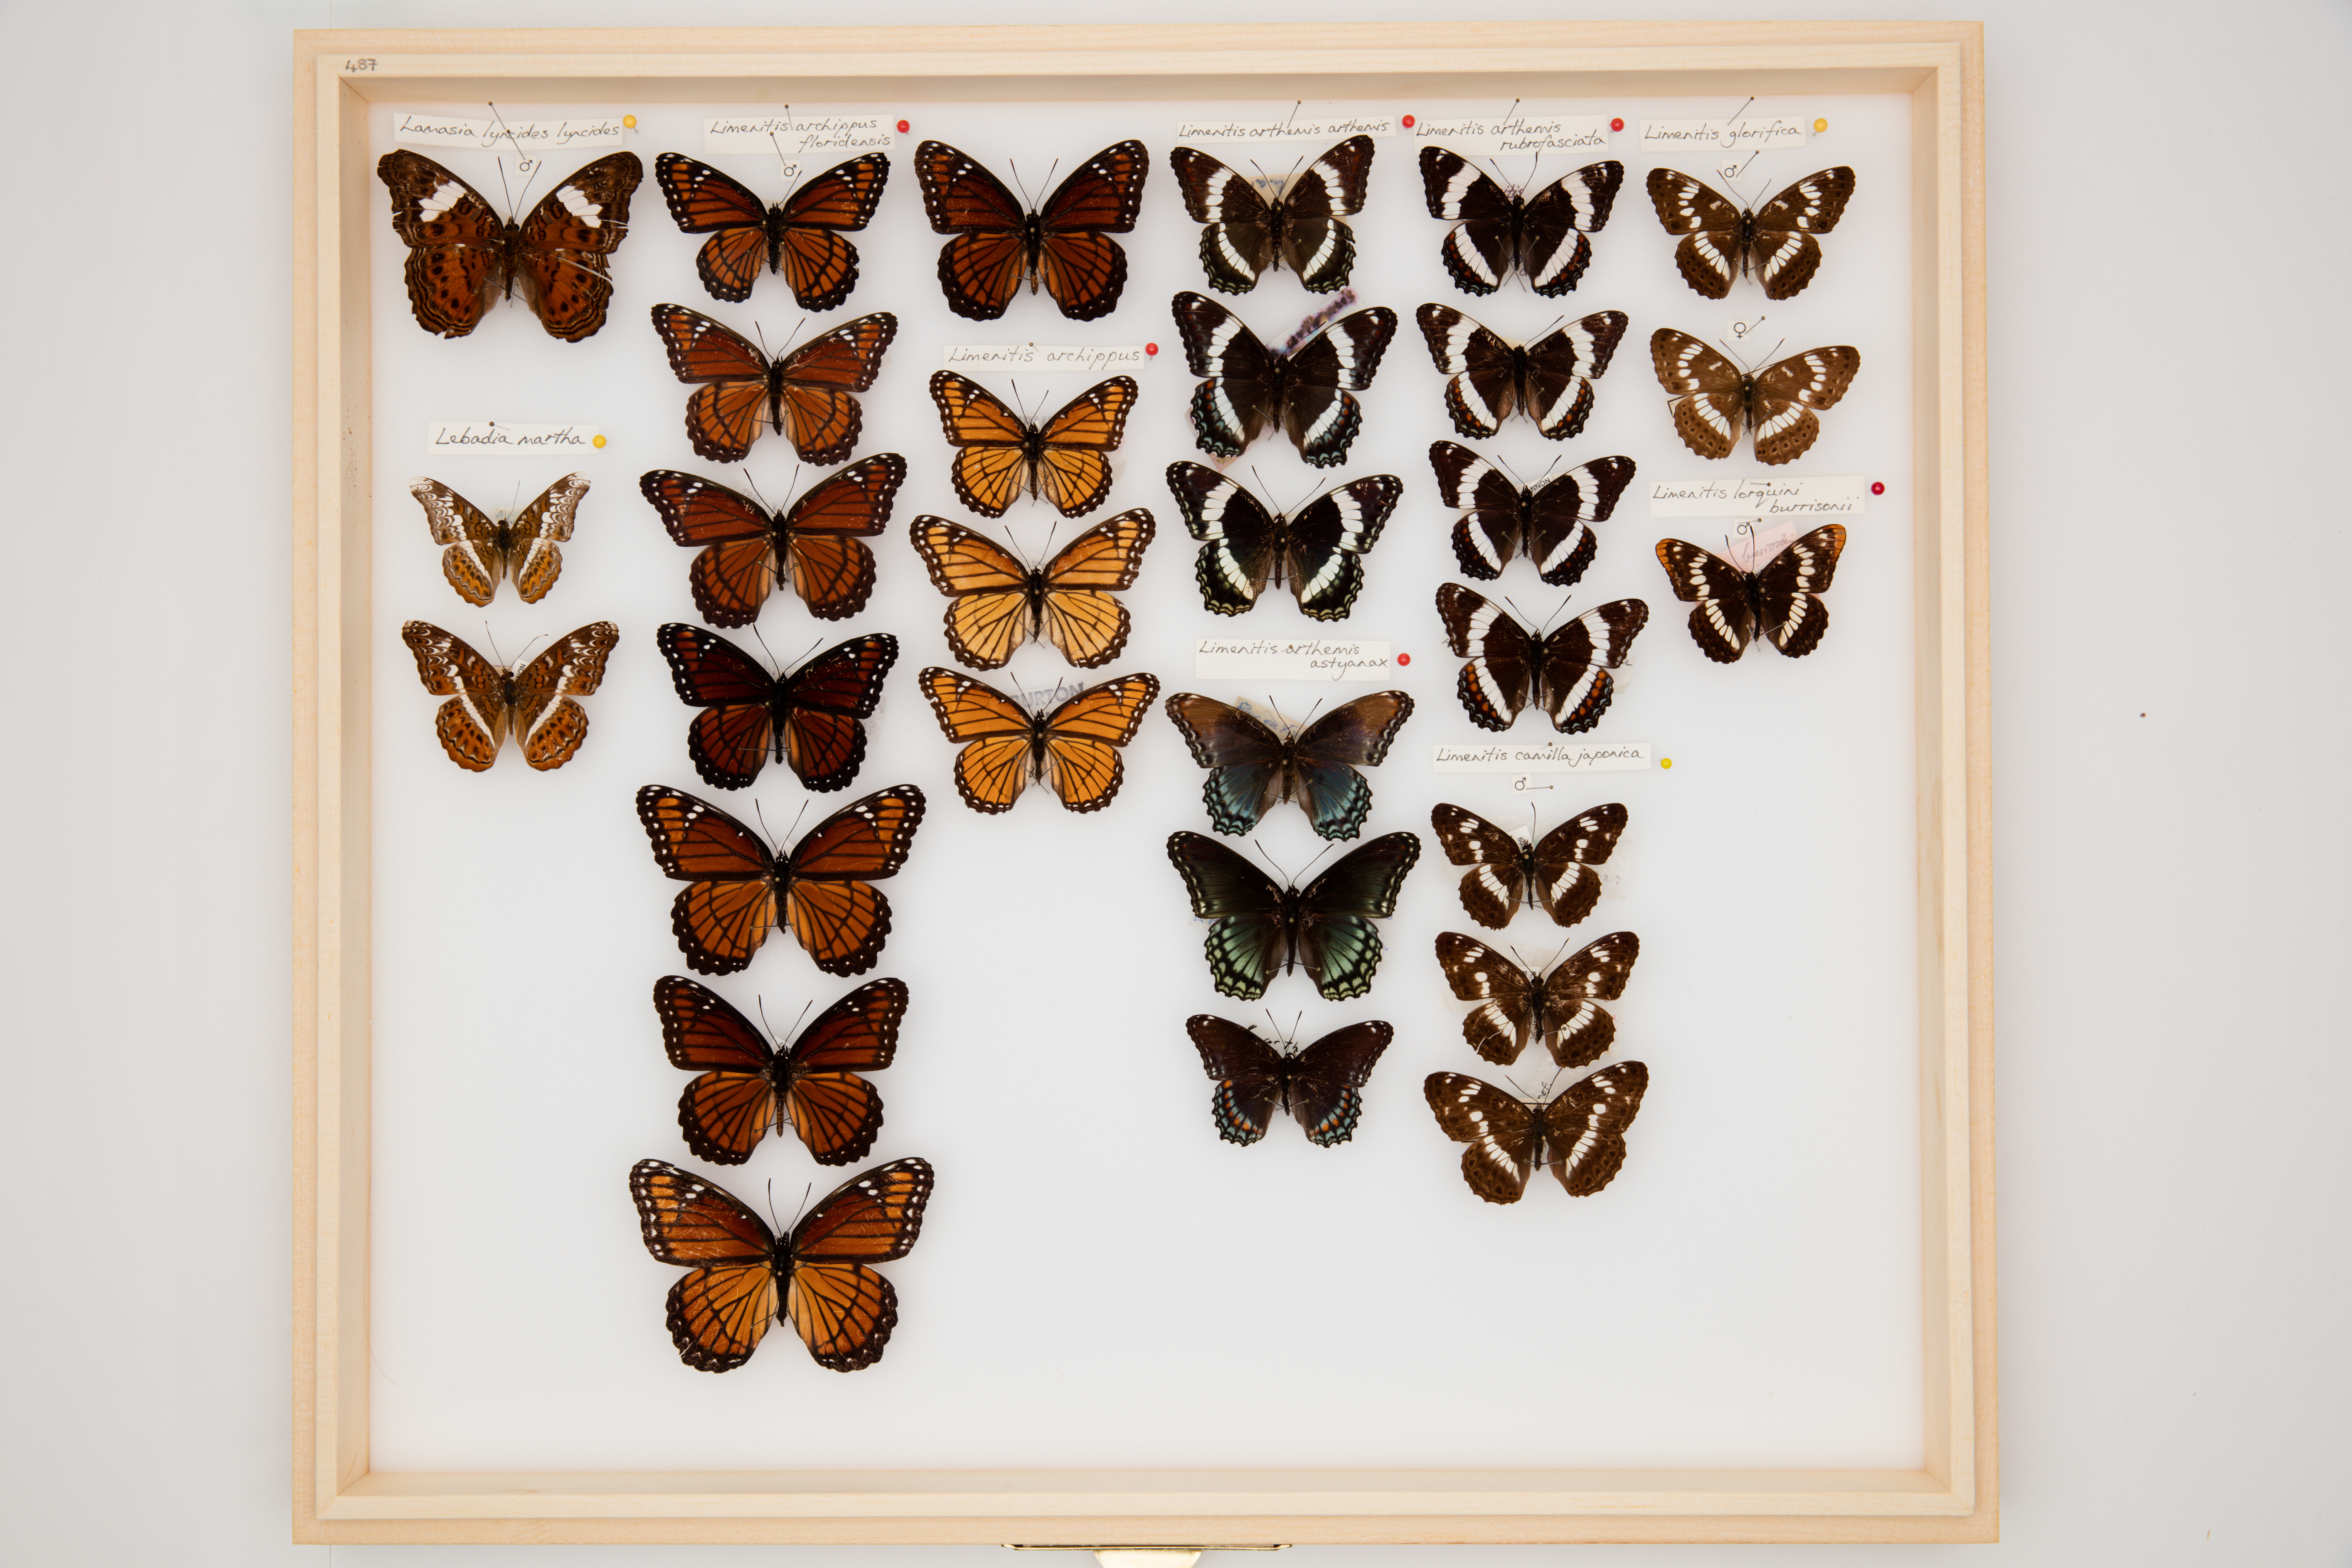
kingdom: Animalia
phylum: Arthropoda
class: Insecta
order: Lepidoptera
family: Nymphalidae
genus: Ladoga
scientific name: Ladoga camilla
